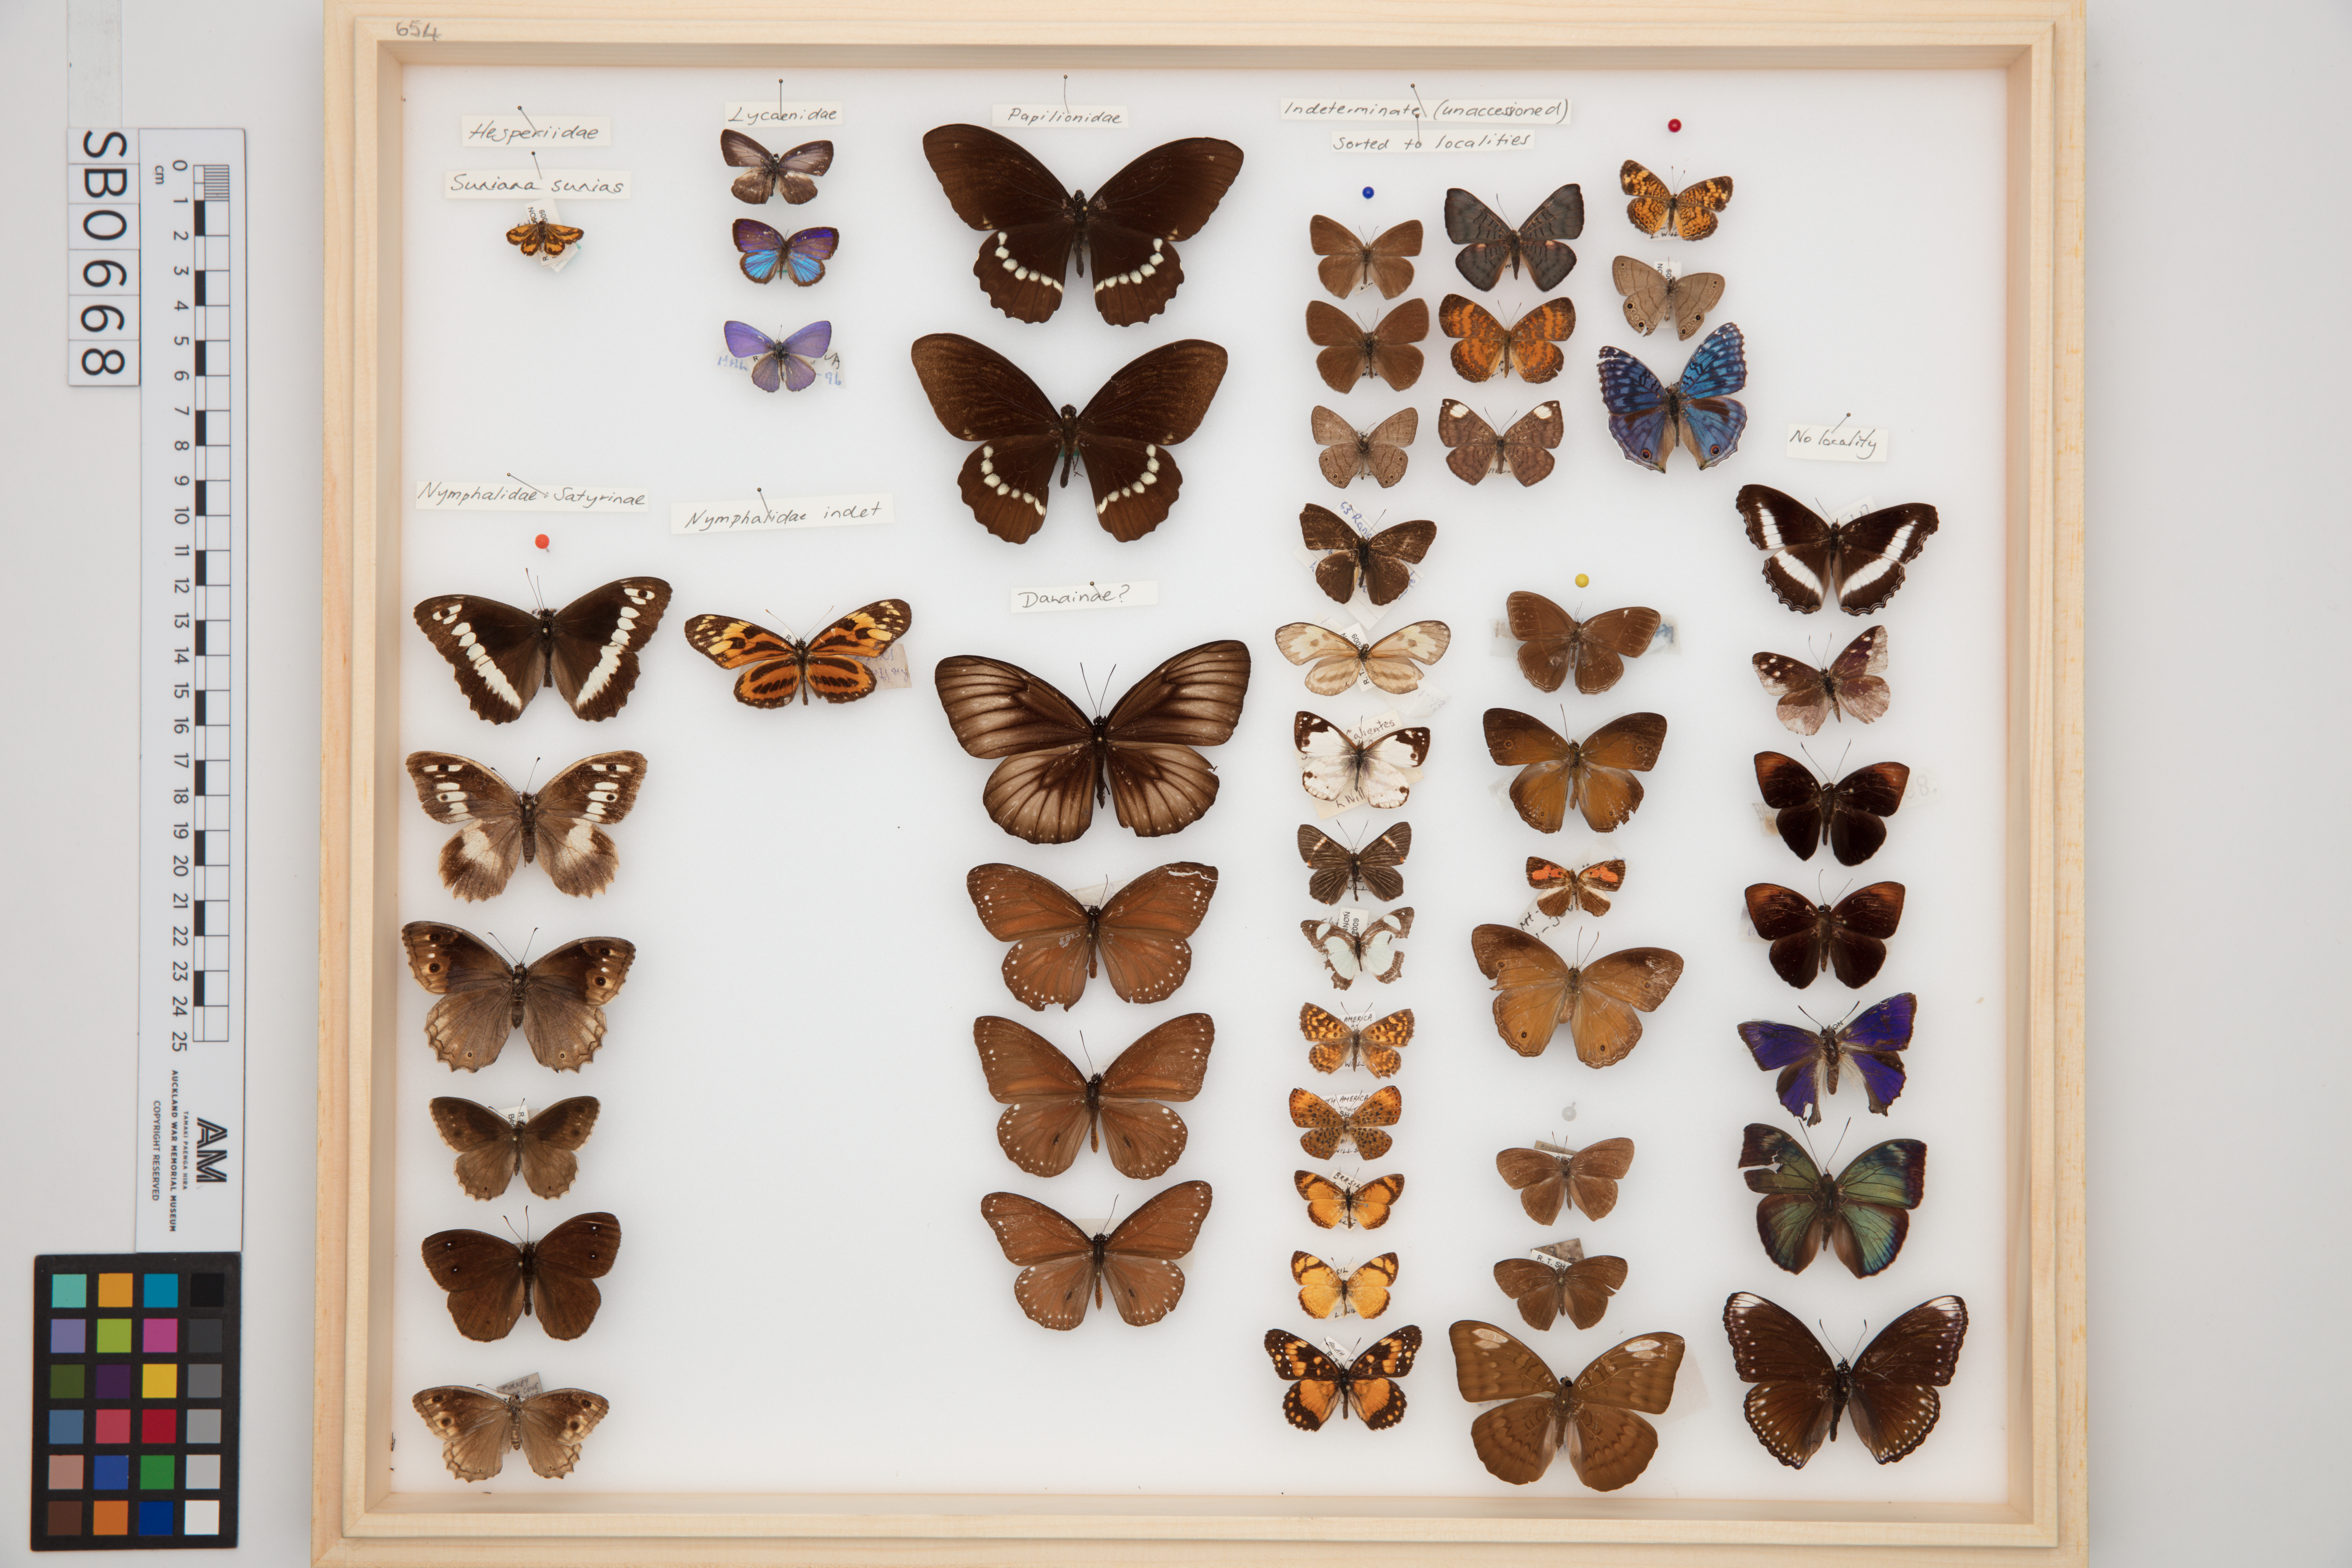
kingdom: Animalia
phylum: Arthropoda
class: Insecta
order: Lepidoptera
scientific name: Lepidoptera
